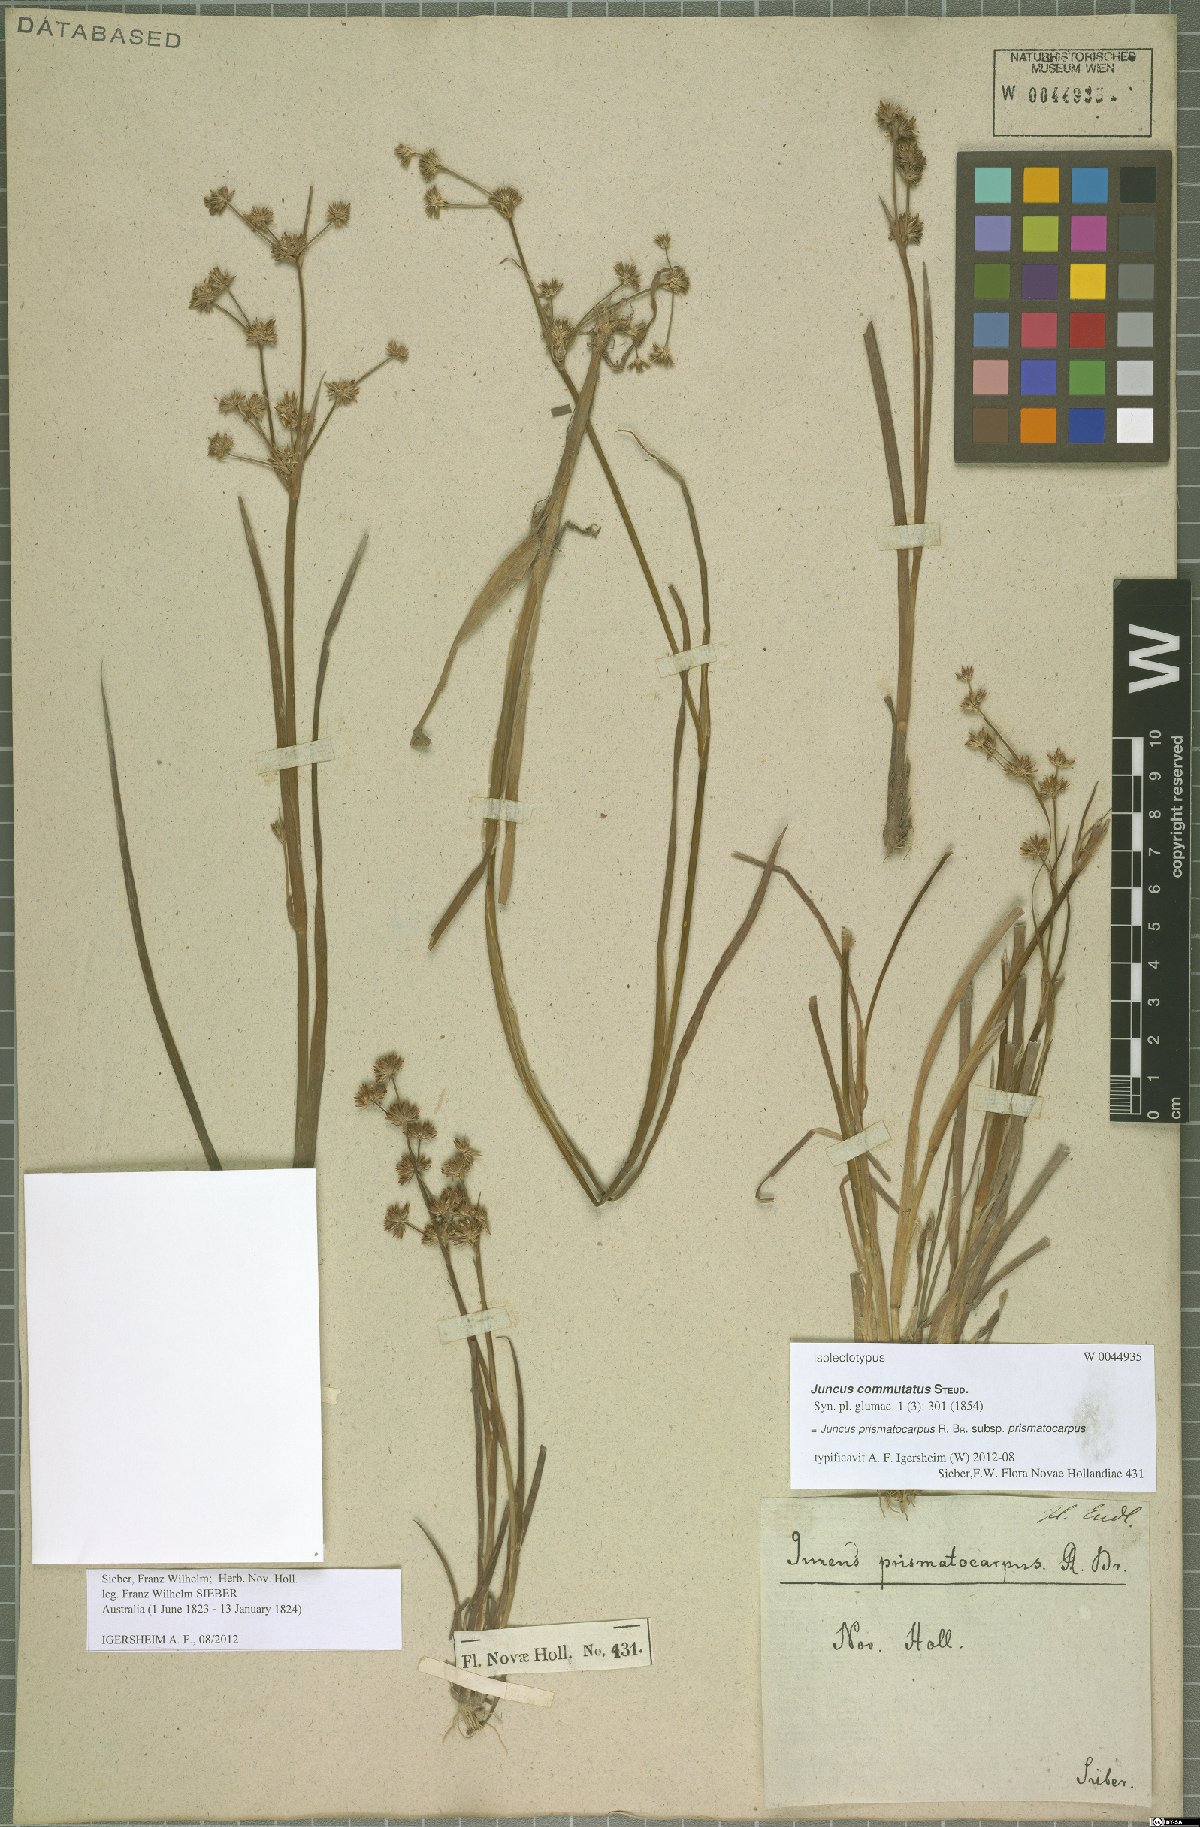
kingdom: Plantae
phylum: Tracheophyta
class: Liliopsida
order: Poales
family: Juncaceae
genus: Juncus
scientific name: Juncus prismatocarpus
